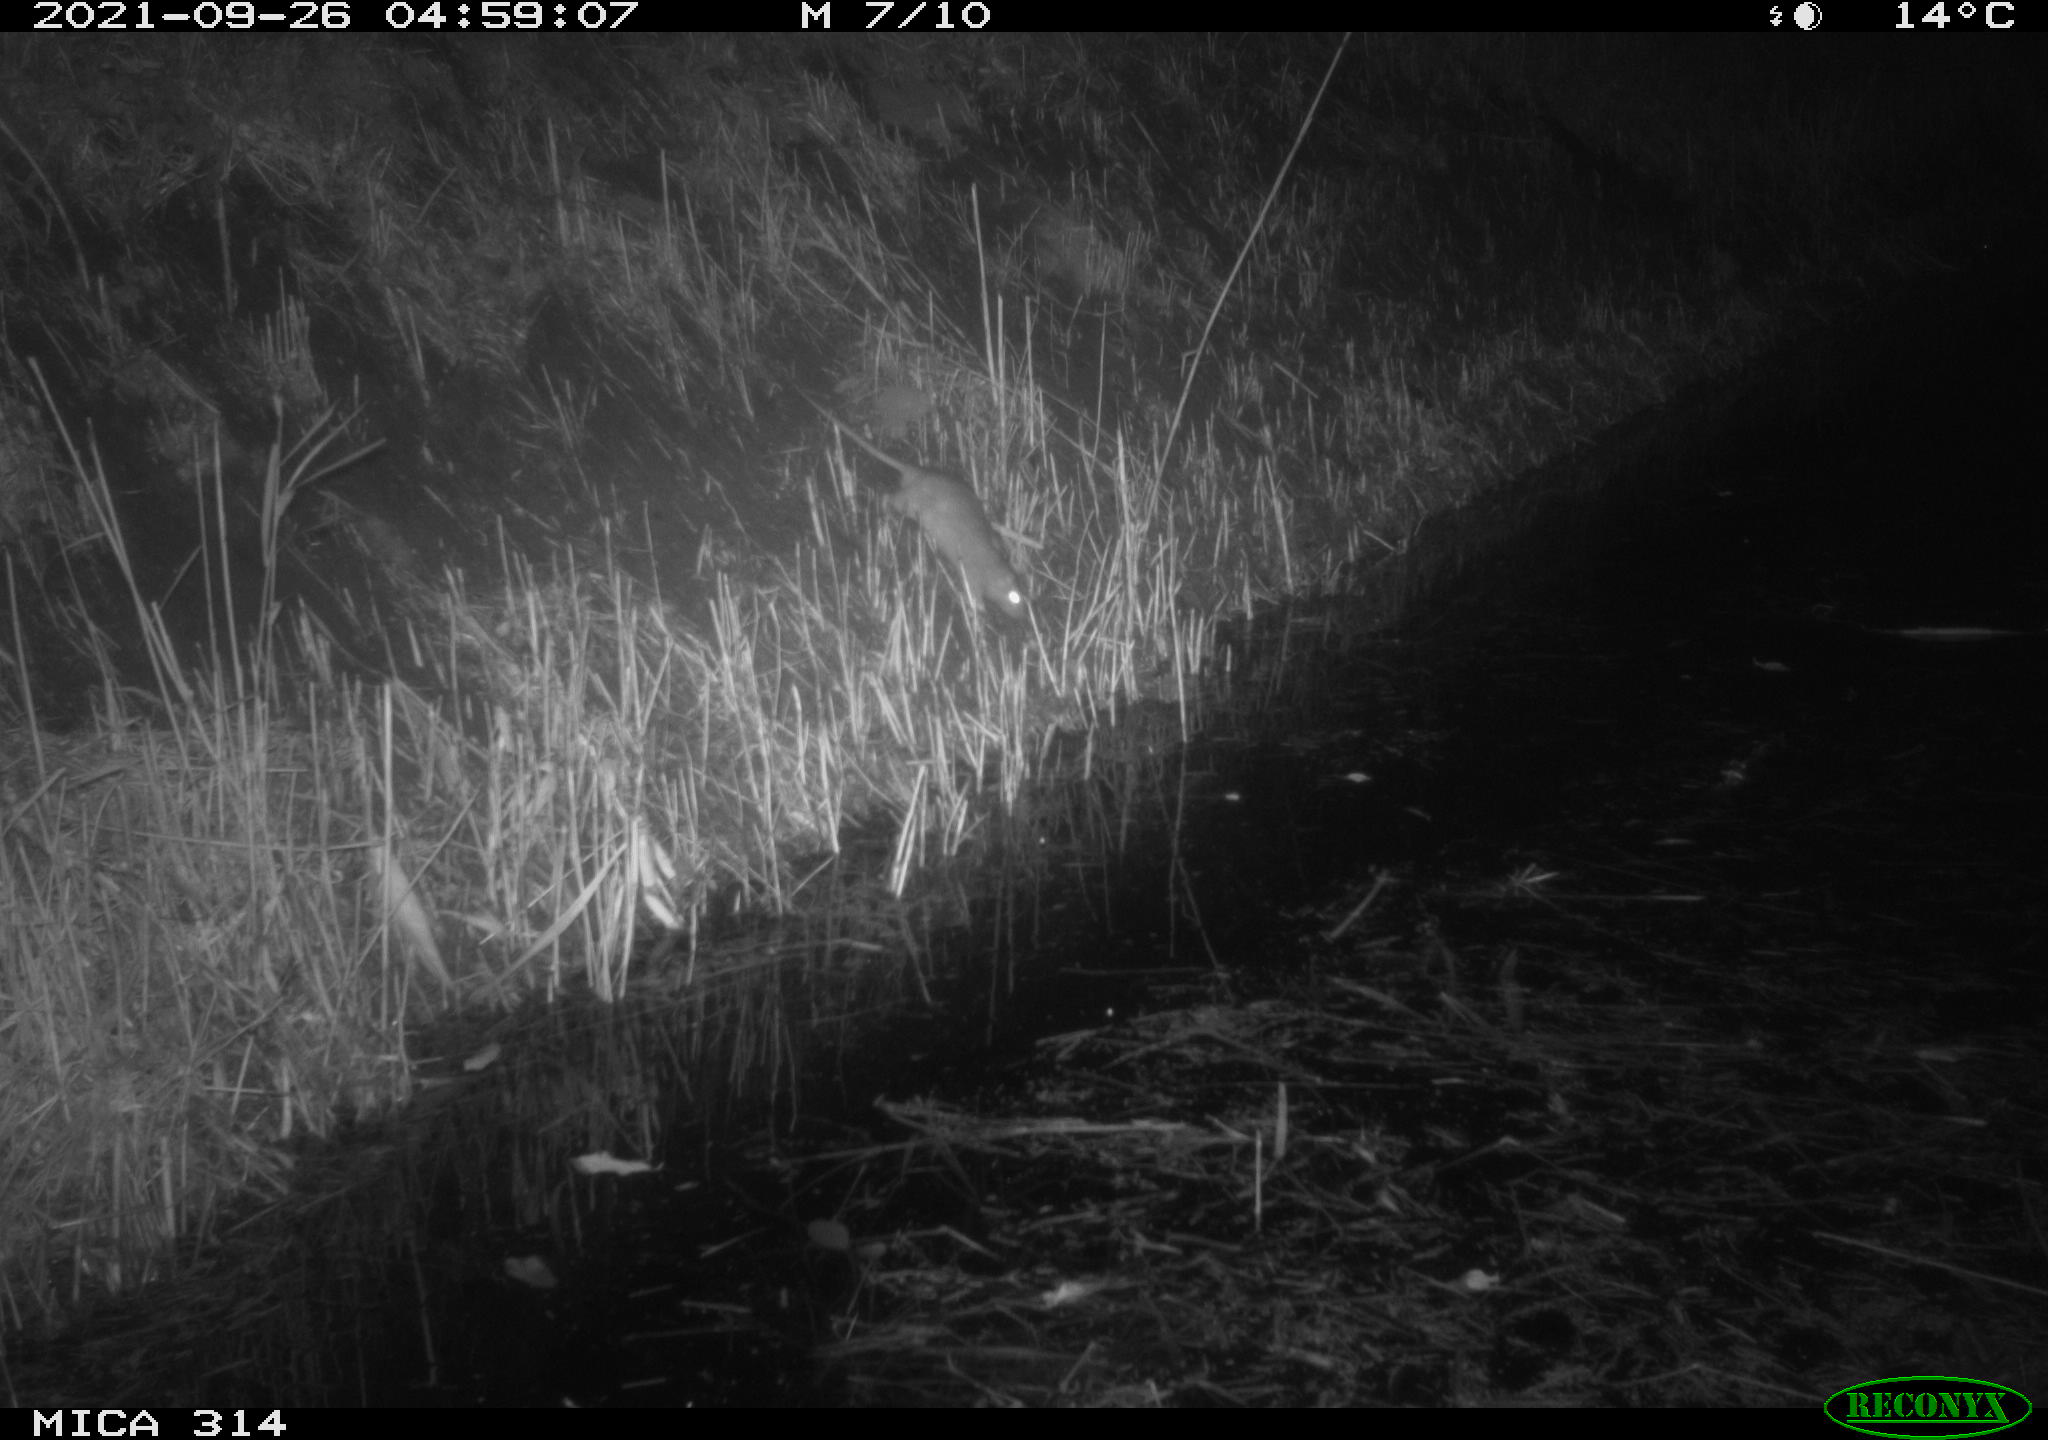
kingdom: Animalia
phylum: Chordata
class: Mammalia
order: Rodentia
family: Muridae
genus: Rattus
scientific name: Rattus norvegicus
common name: Brown rat
